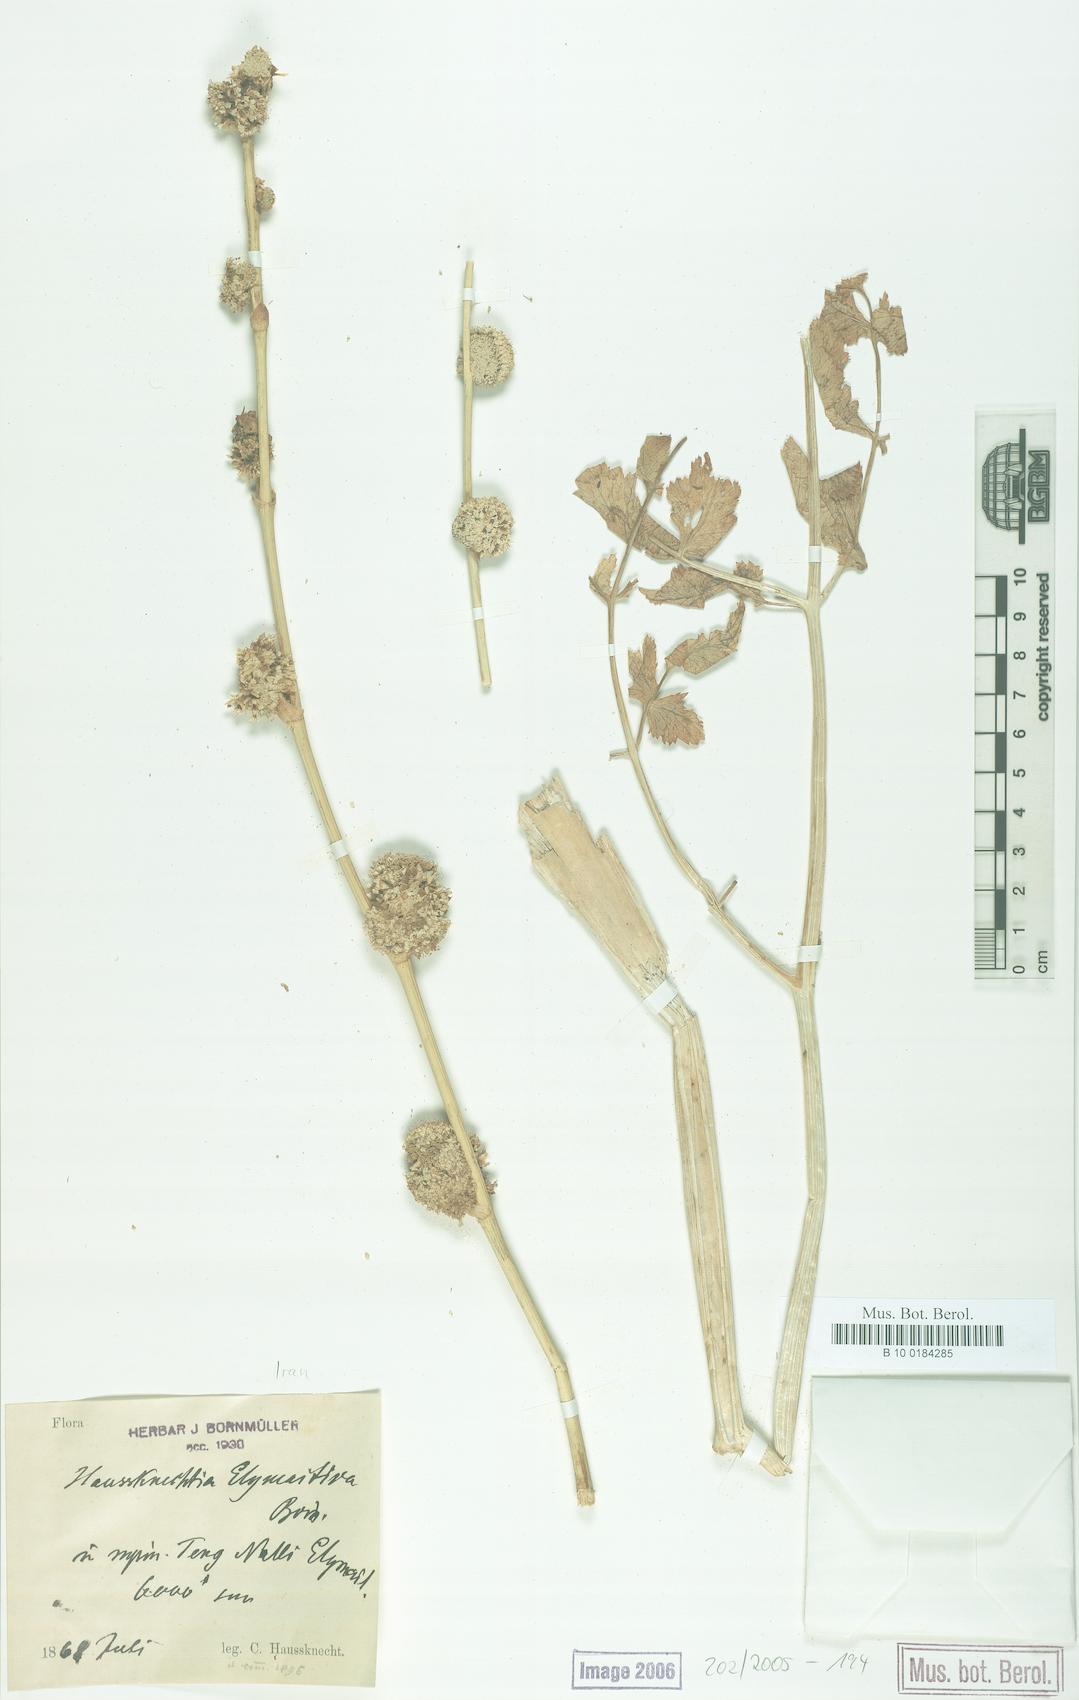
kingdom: Plantae
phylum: Tracheophyta
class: Magnoliopsida
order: Apiales
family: Apiaceae
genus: Haussknechtia
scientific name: Haussknechtia elymaitica
